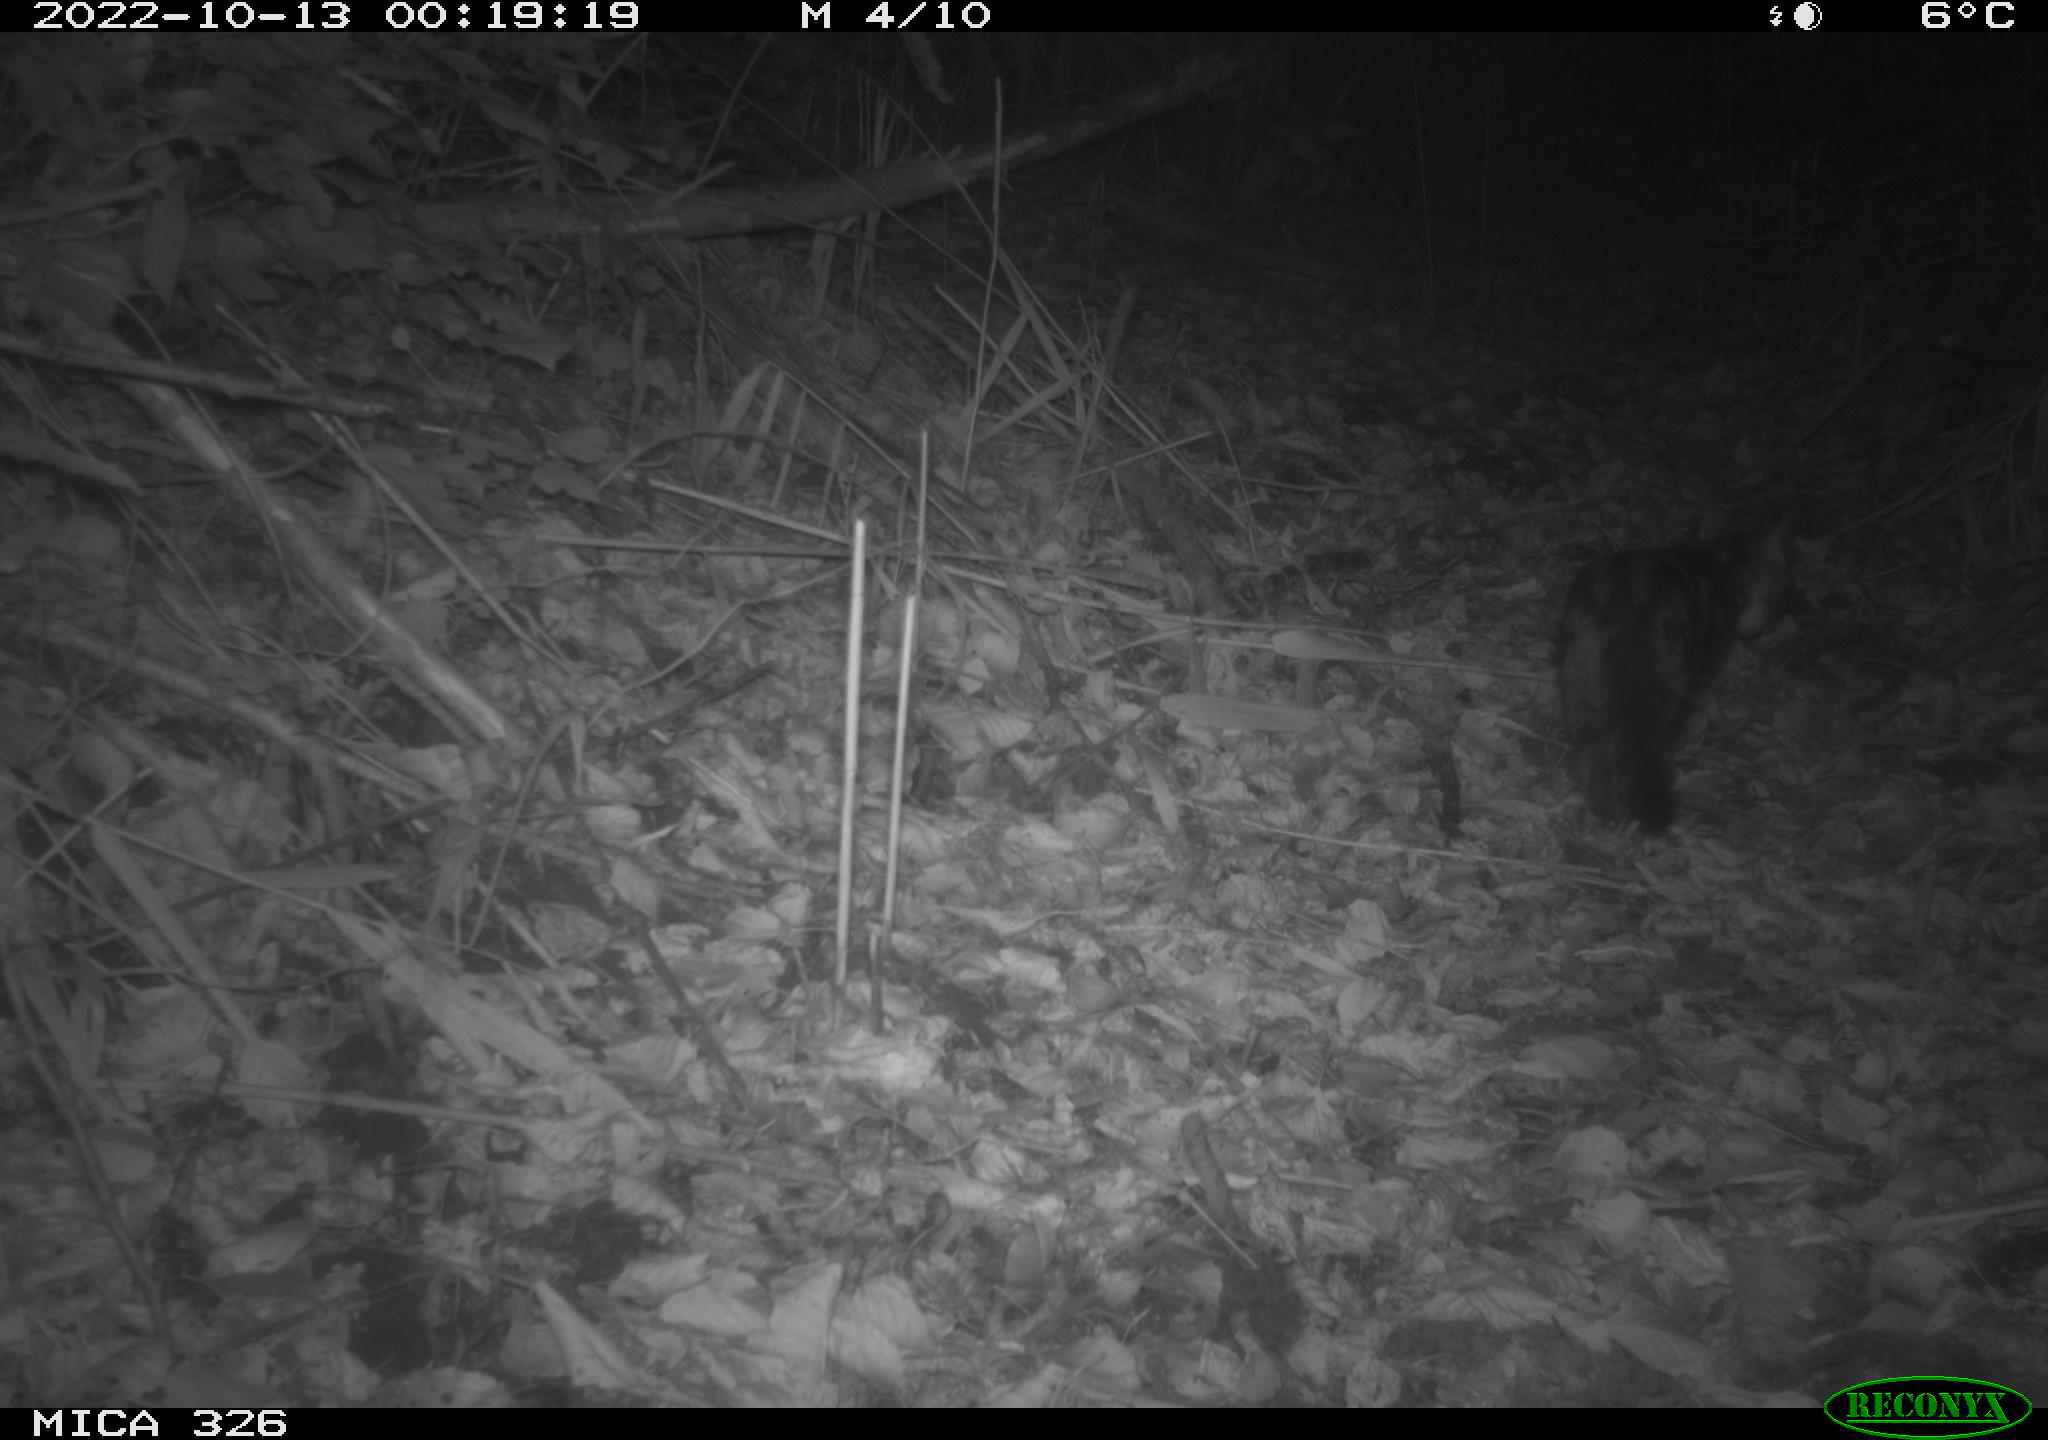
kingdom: Animalia
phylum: Chordata
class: Mammalia
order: Carnivora
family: Felidae
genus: Felis
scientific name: Felis catus
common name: Domestic cat
